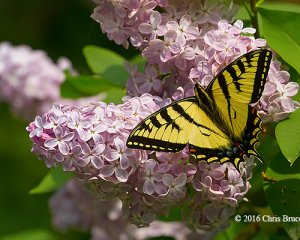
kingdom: Animalia
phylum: Arthropoda
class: Insecta
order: Lepidoptera
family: Papilionidae
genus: Pterourus
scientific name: Pterourus canadensis
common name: Canadian Tiger Swallowtail
